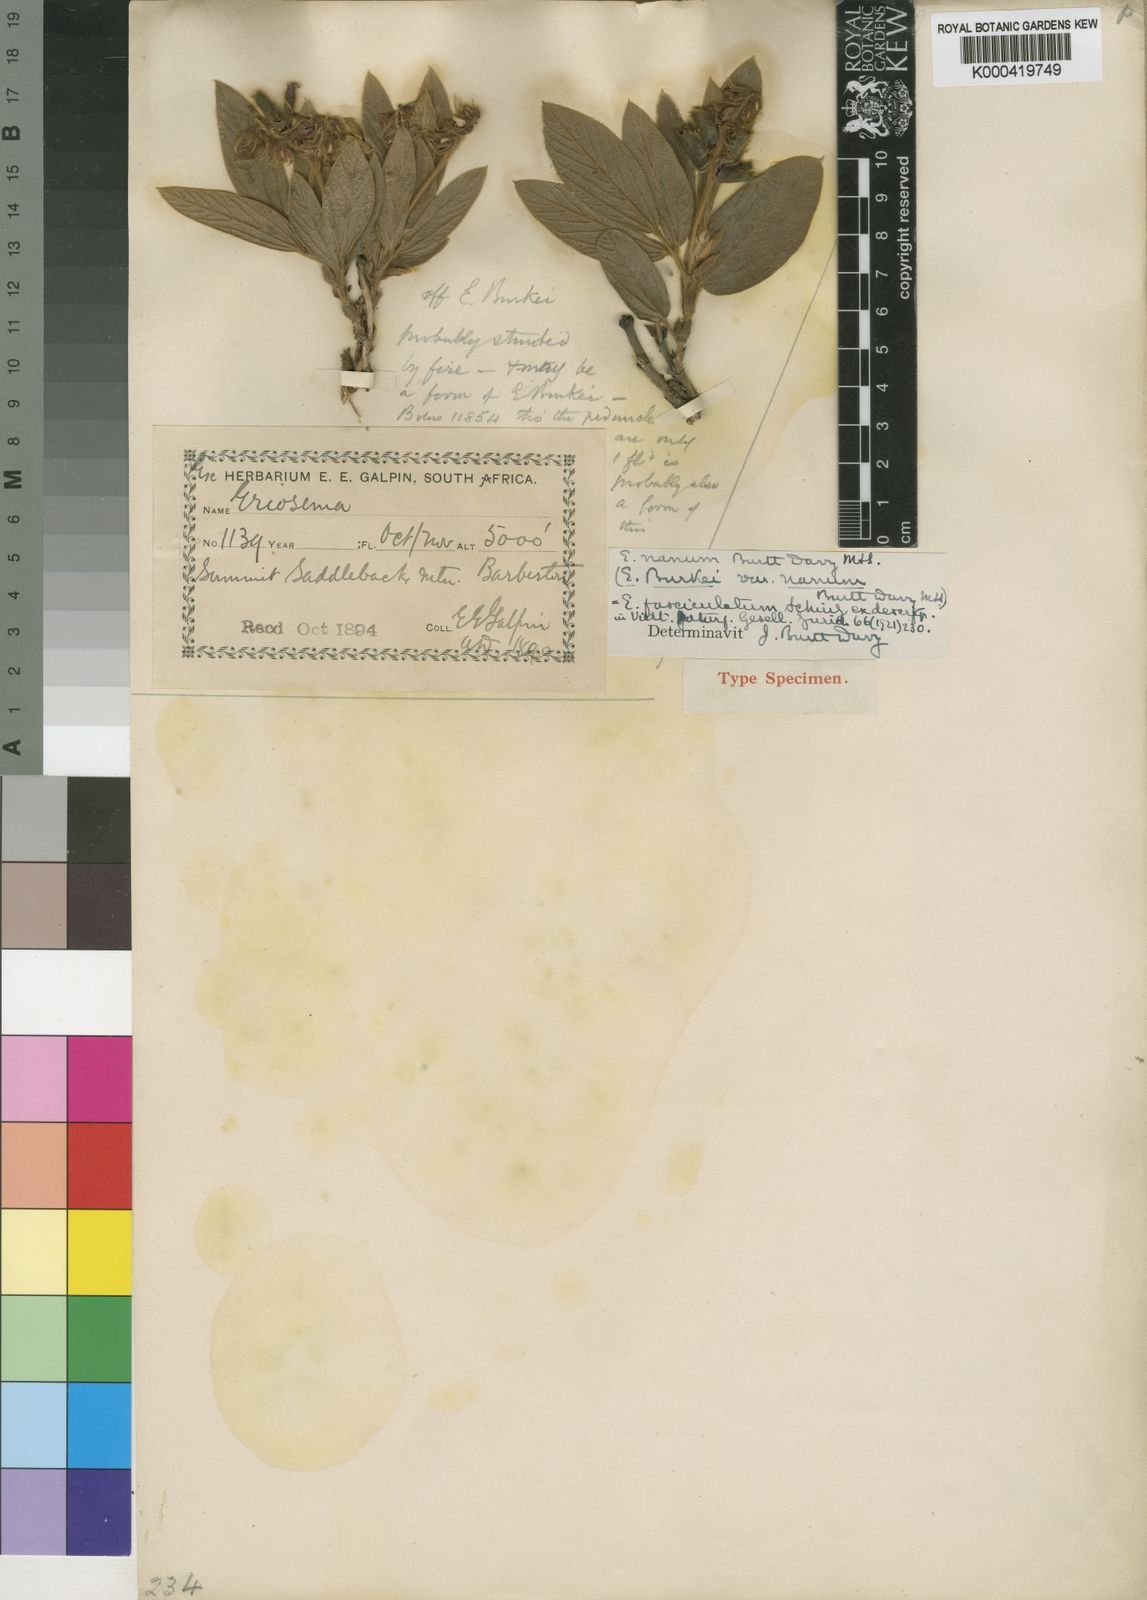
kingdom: Plantae
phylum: Tracheophyta
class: Magnoliopsida
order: Fabales
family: Fabaceae
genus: Eriosema
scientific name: Eriosema ellipticifolium
